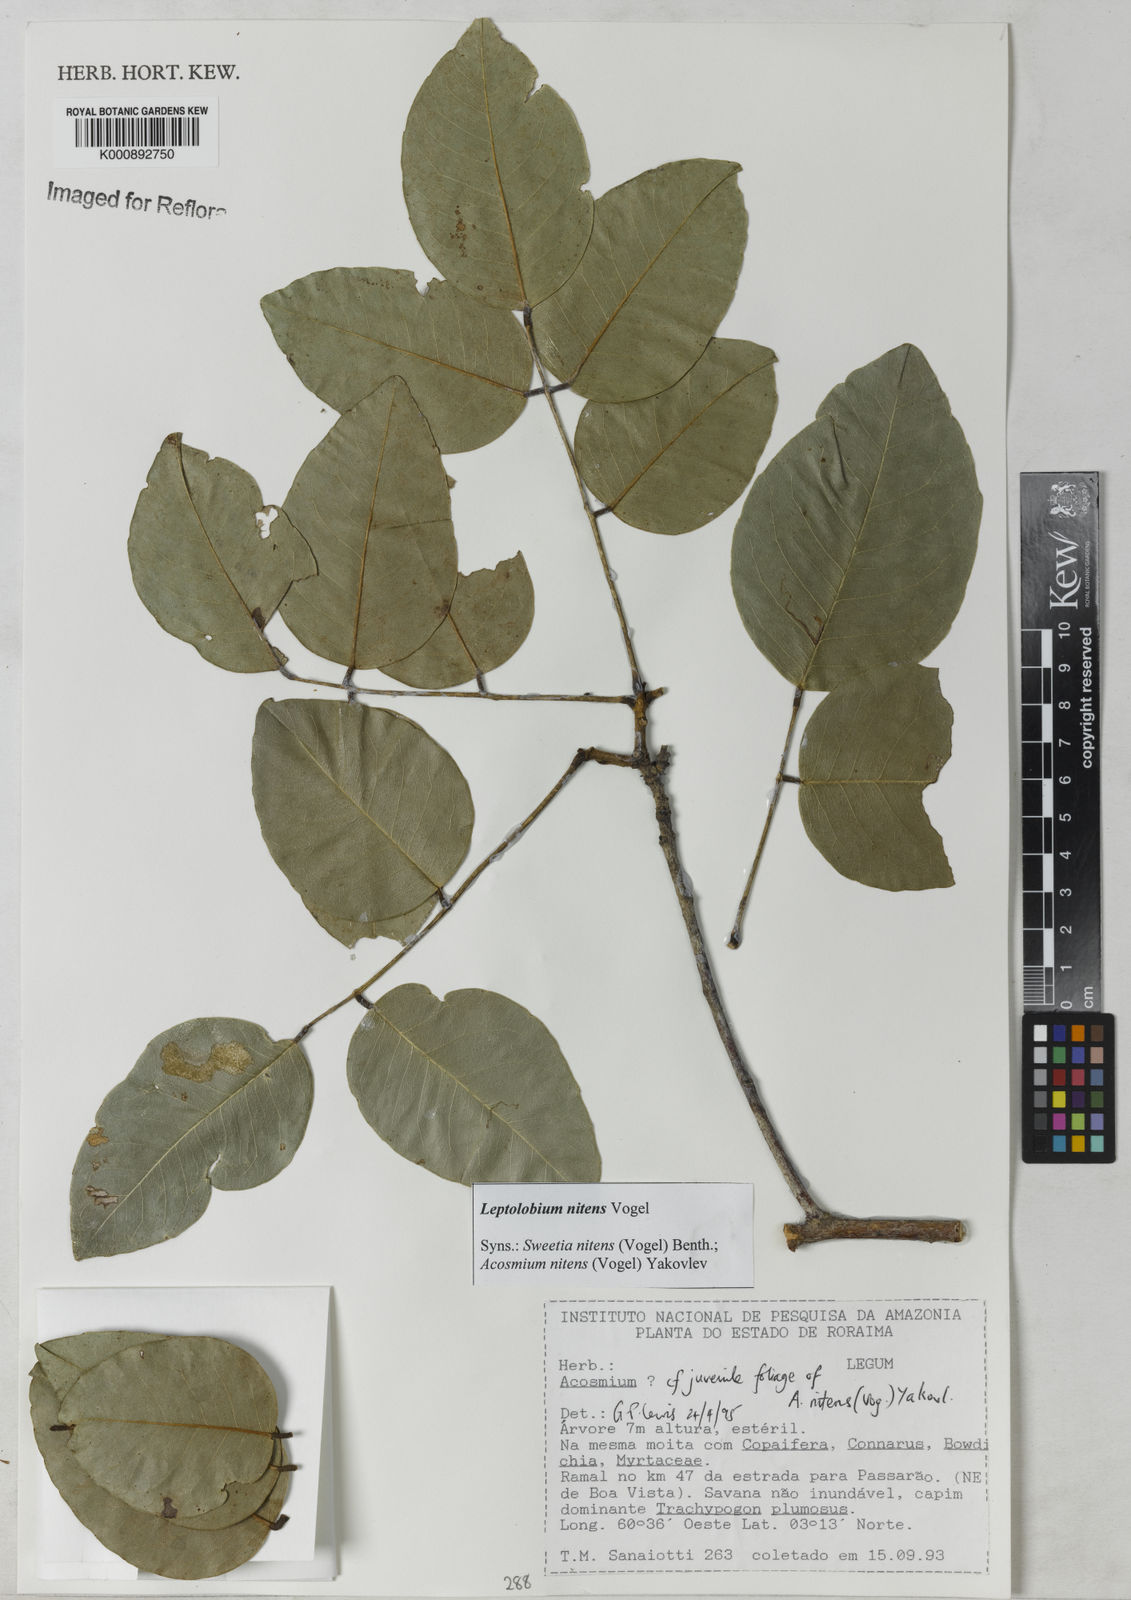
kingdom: Plantae
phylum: Tracheophyta
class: Magnoliopsida
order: Fabales
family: Fabaceae
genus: Leptolobium
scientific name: Leptolobium nitens
